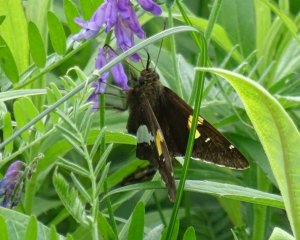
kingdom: Animalia
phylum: Arthropoda
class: Insecta
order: Lepidoptera
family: Hesperiidae
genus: Epargyreus
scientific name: Epargyreus clarus
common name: Silver-spotted Skipper
